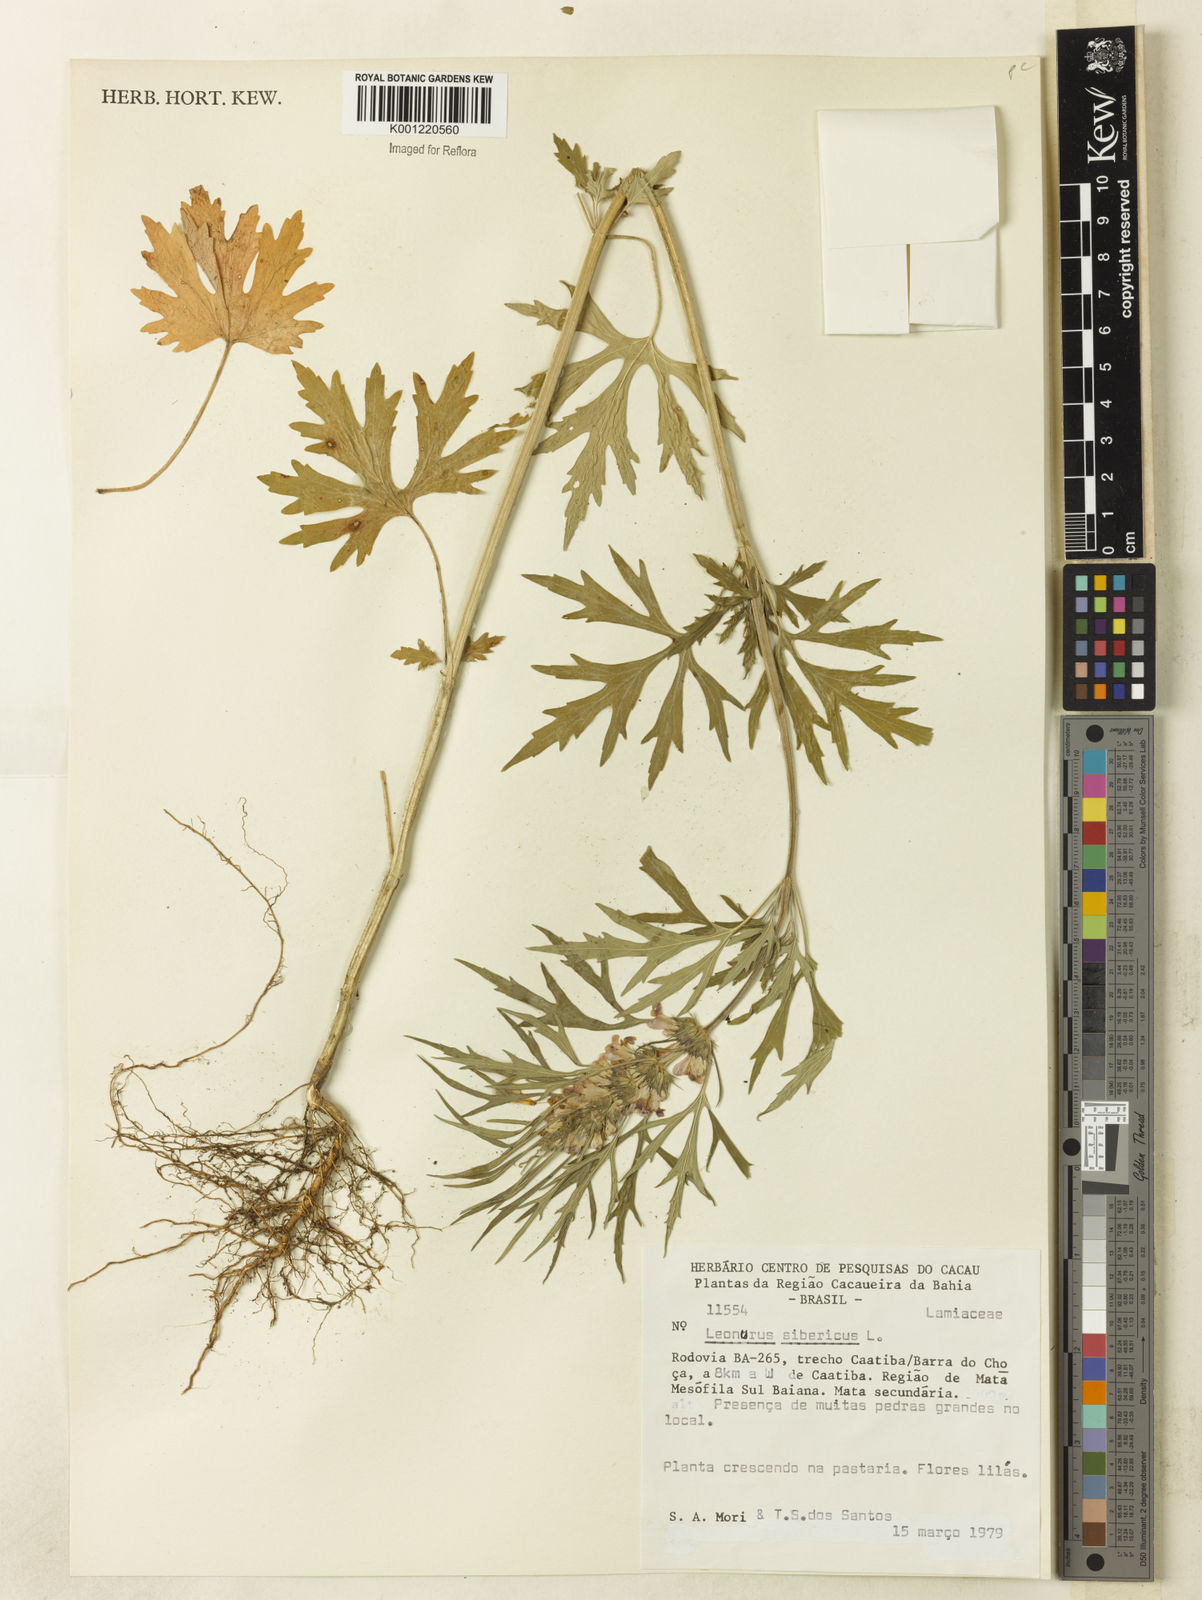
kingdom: Plantae
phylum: Tracheophyta
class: Magnoliopsida
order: Lamiales
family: Lamiaceae
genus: Leonurus
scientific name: Leonurus japonicus
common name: Honeyweed
